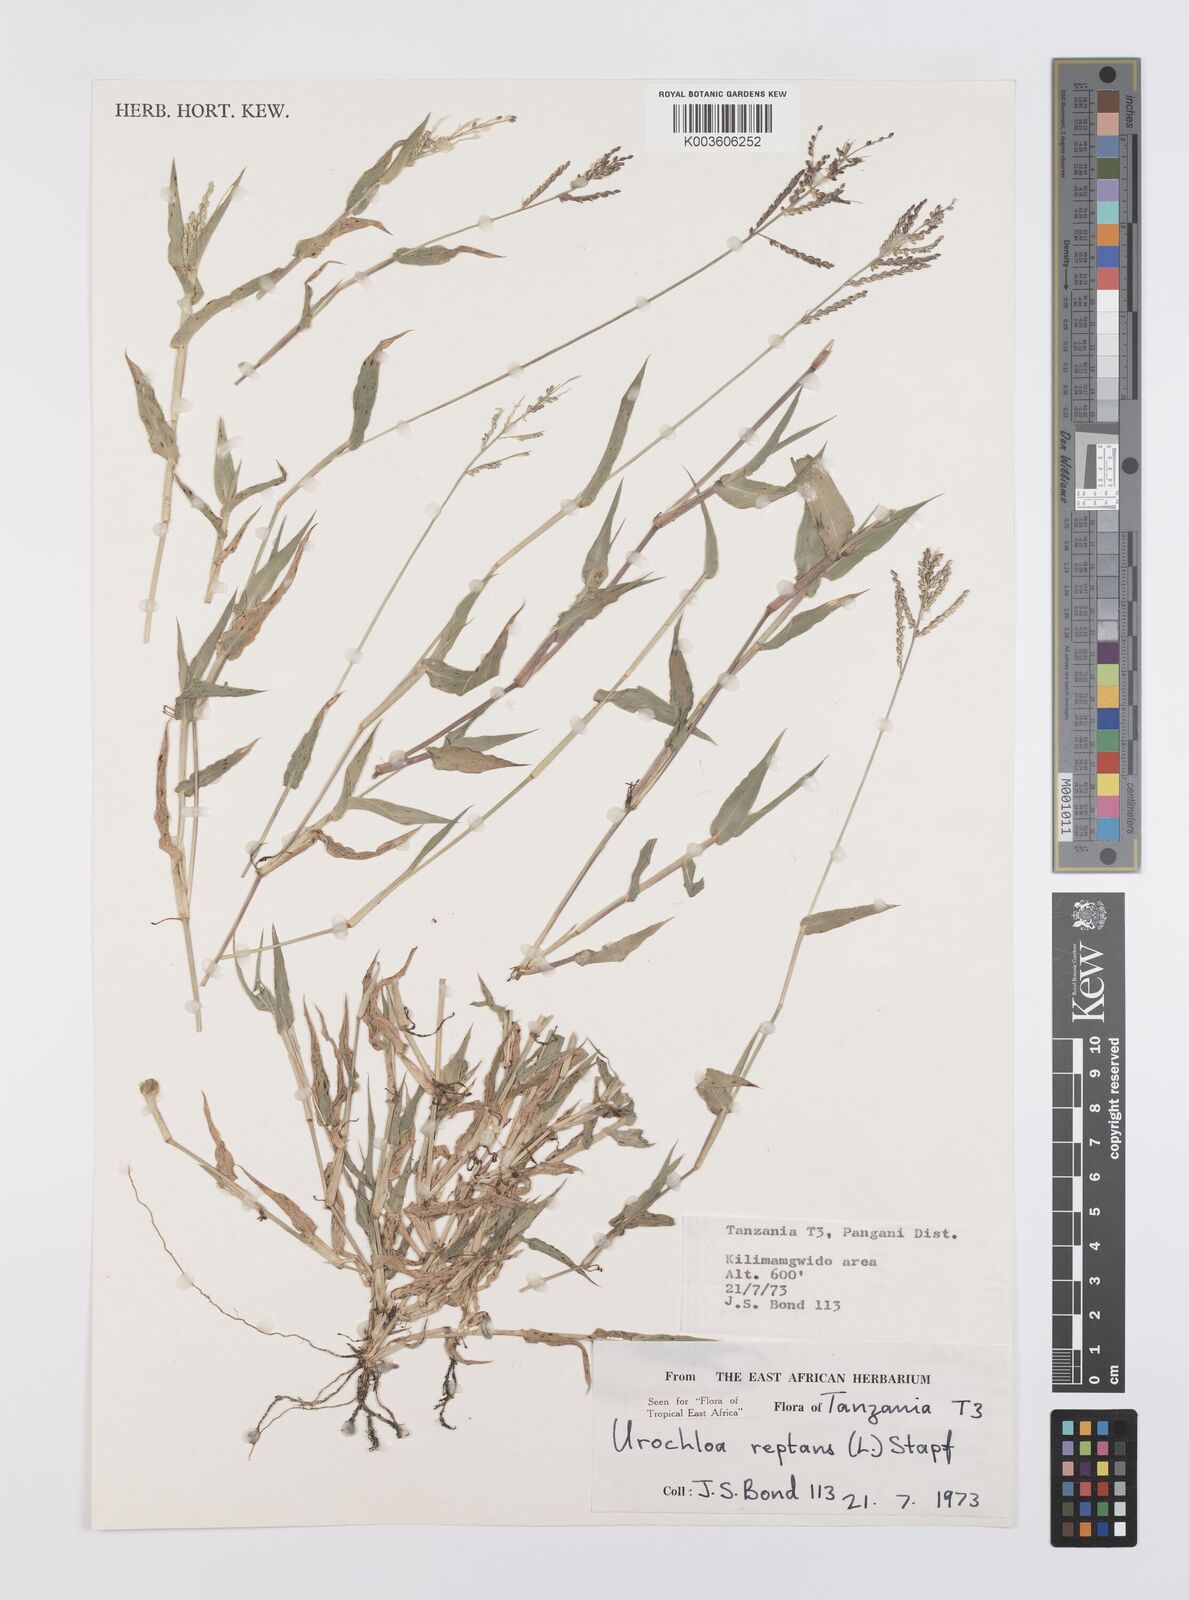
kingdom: Plantae
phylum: Tracheophyta
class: Liliopsida
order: Poales
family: Poaceae
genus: Urochloa
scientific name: Urochloa reptans
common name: Sprawling signalgrass
